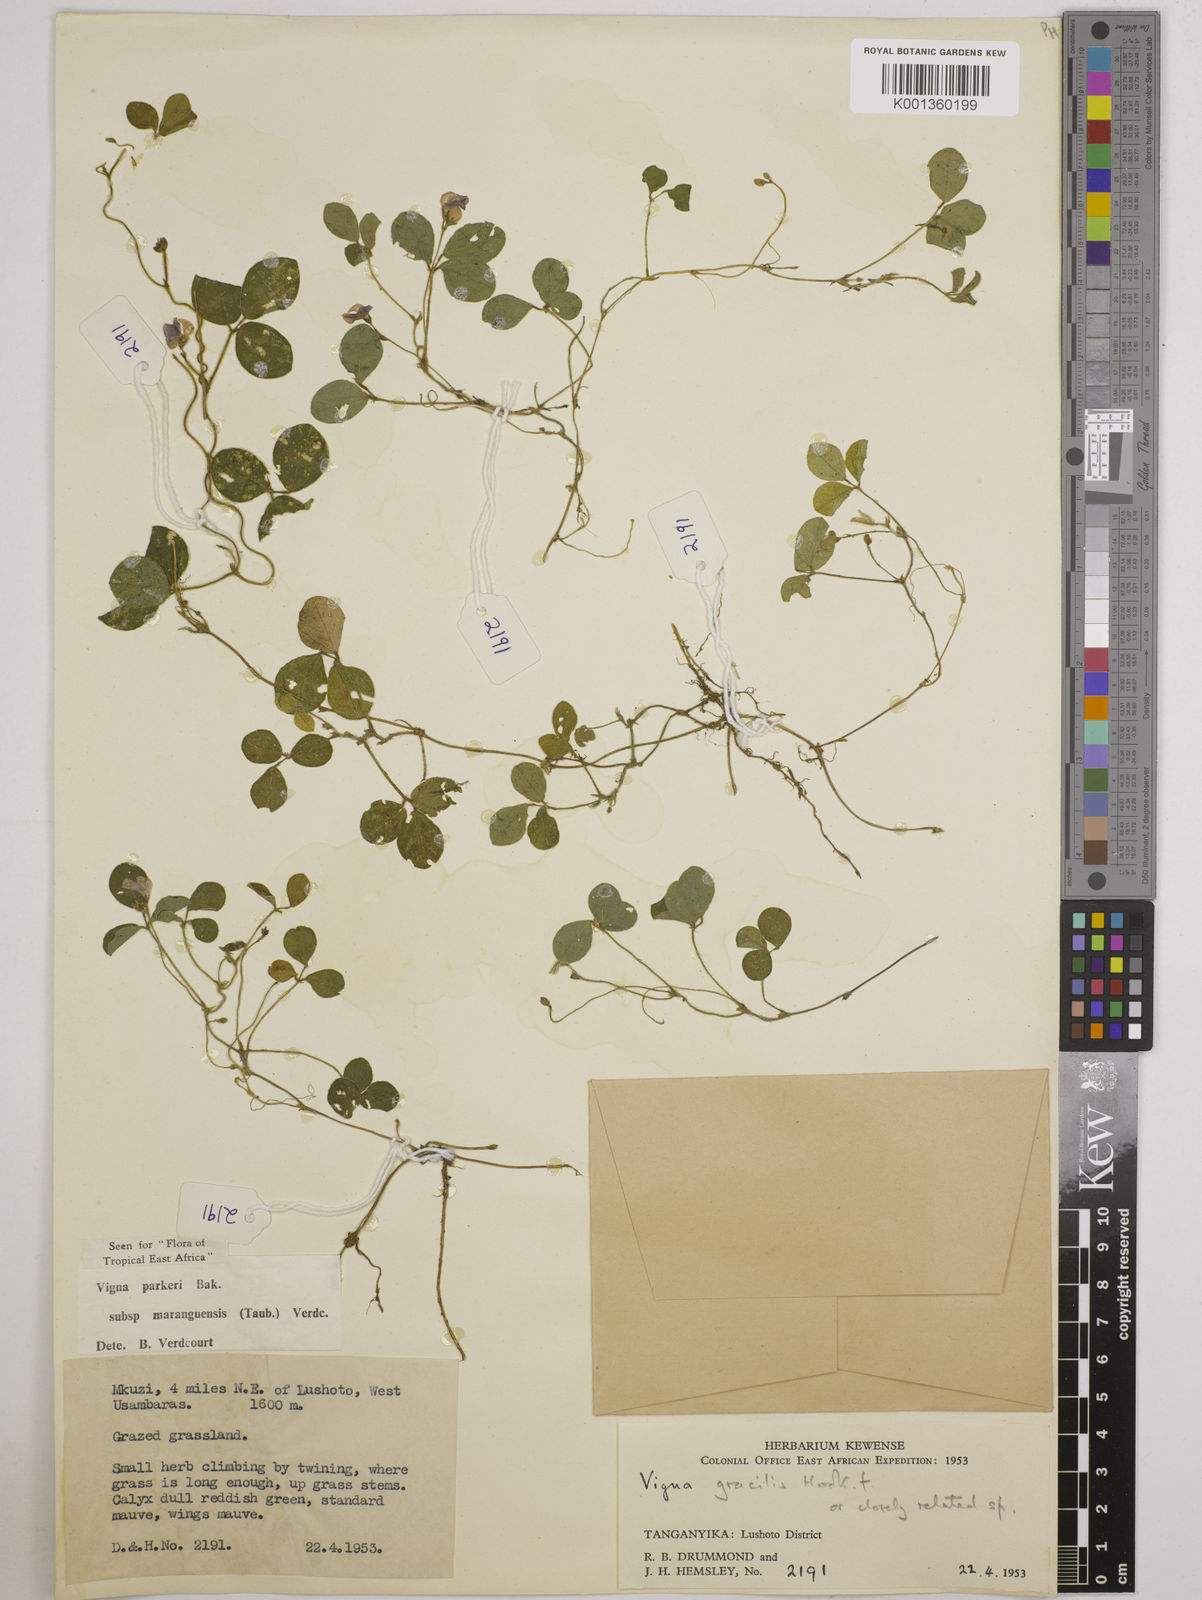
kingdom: Plantae
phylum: Tracheophyta
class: Magnoliopsida
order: Fabales
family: Fabaceae
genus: Vigna
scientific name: Vigna
